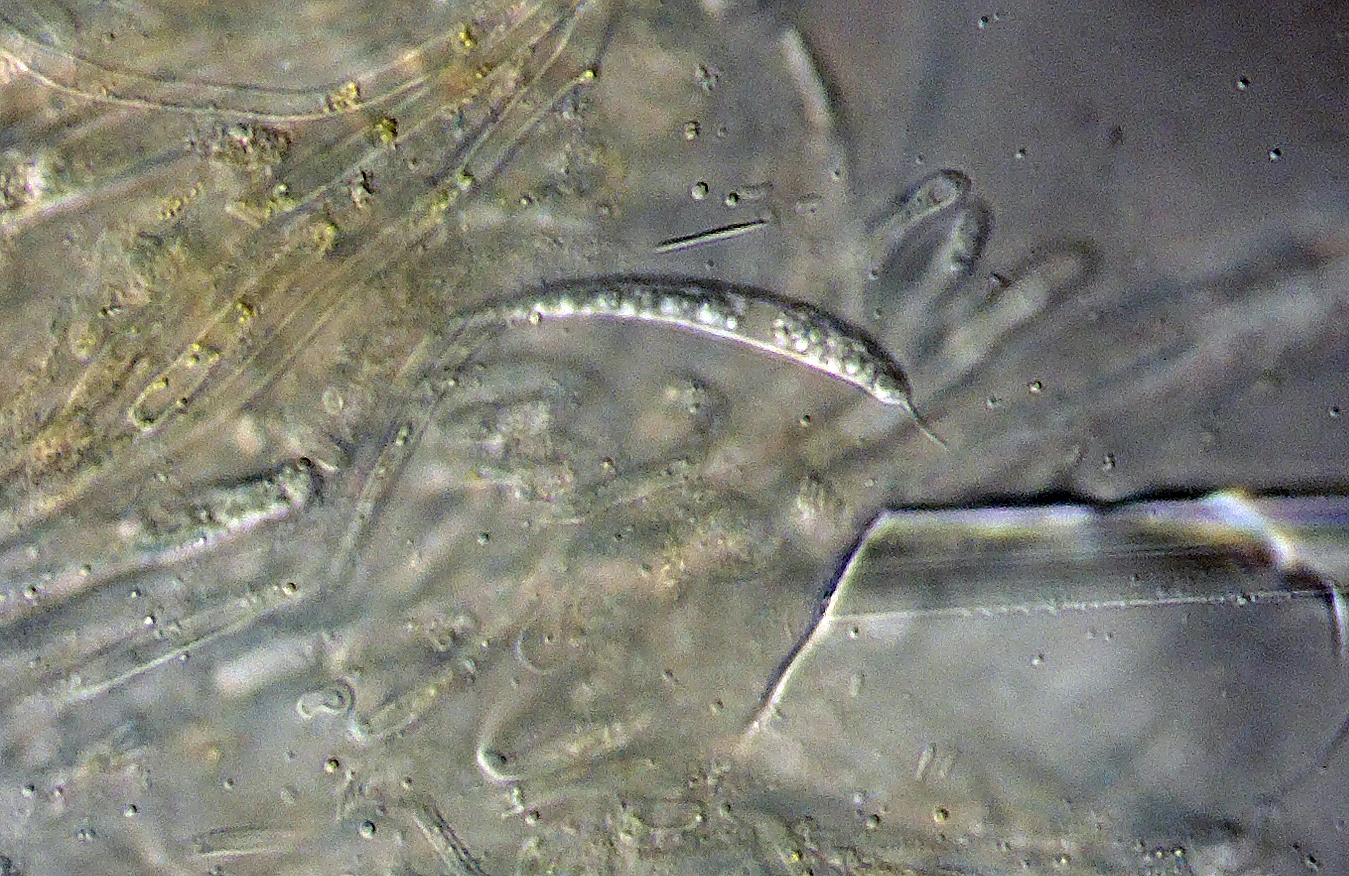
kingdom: Fungi
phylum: Ascomycota
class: Leotiomycetes
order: Helotiales
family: Helotiaceae
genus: Hymenoscyphus
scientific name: Hymenoscyphus reynoutriae
